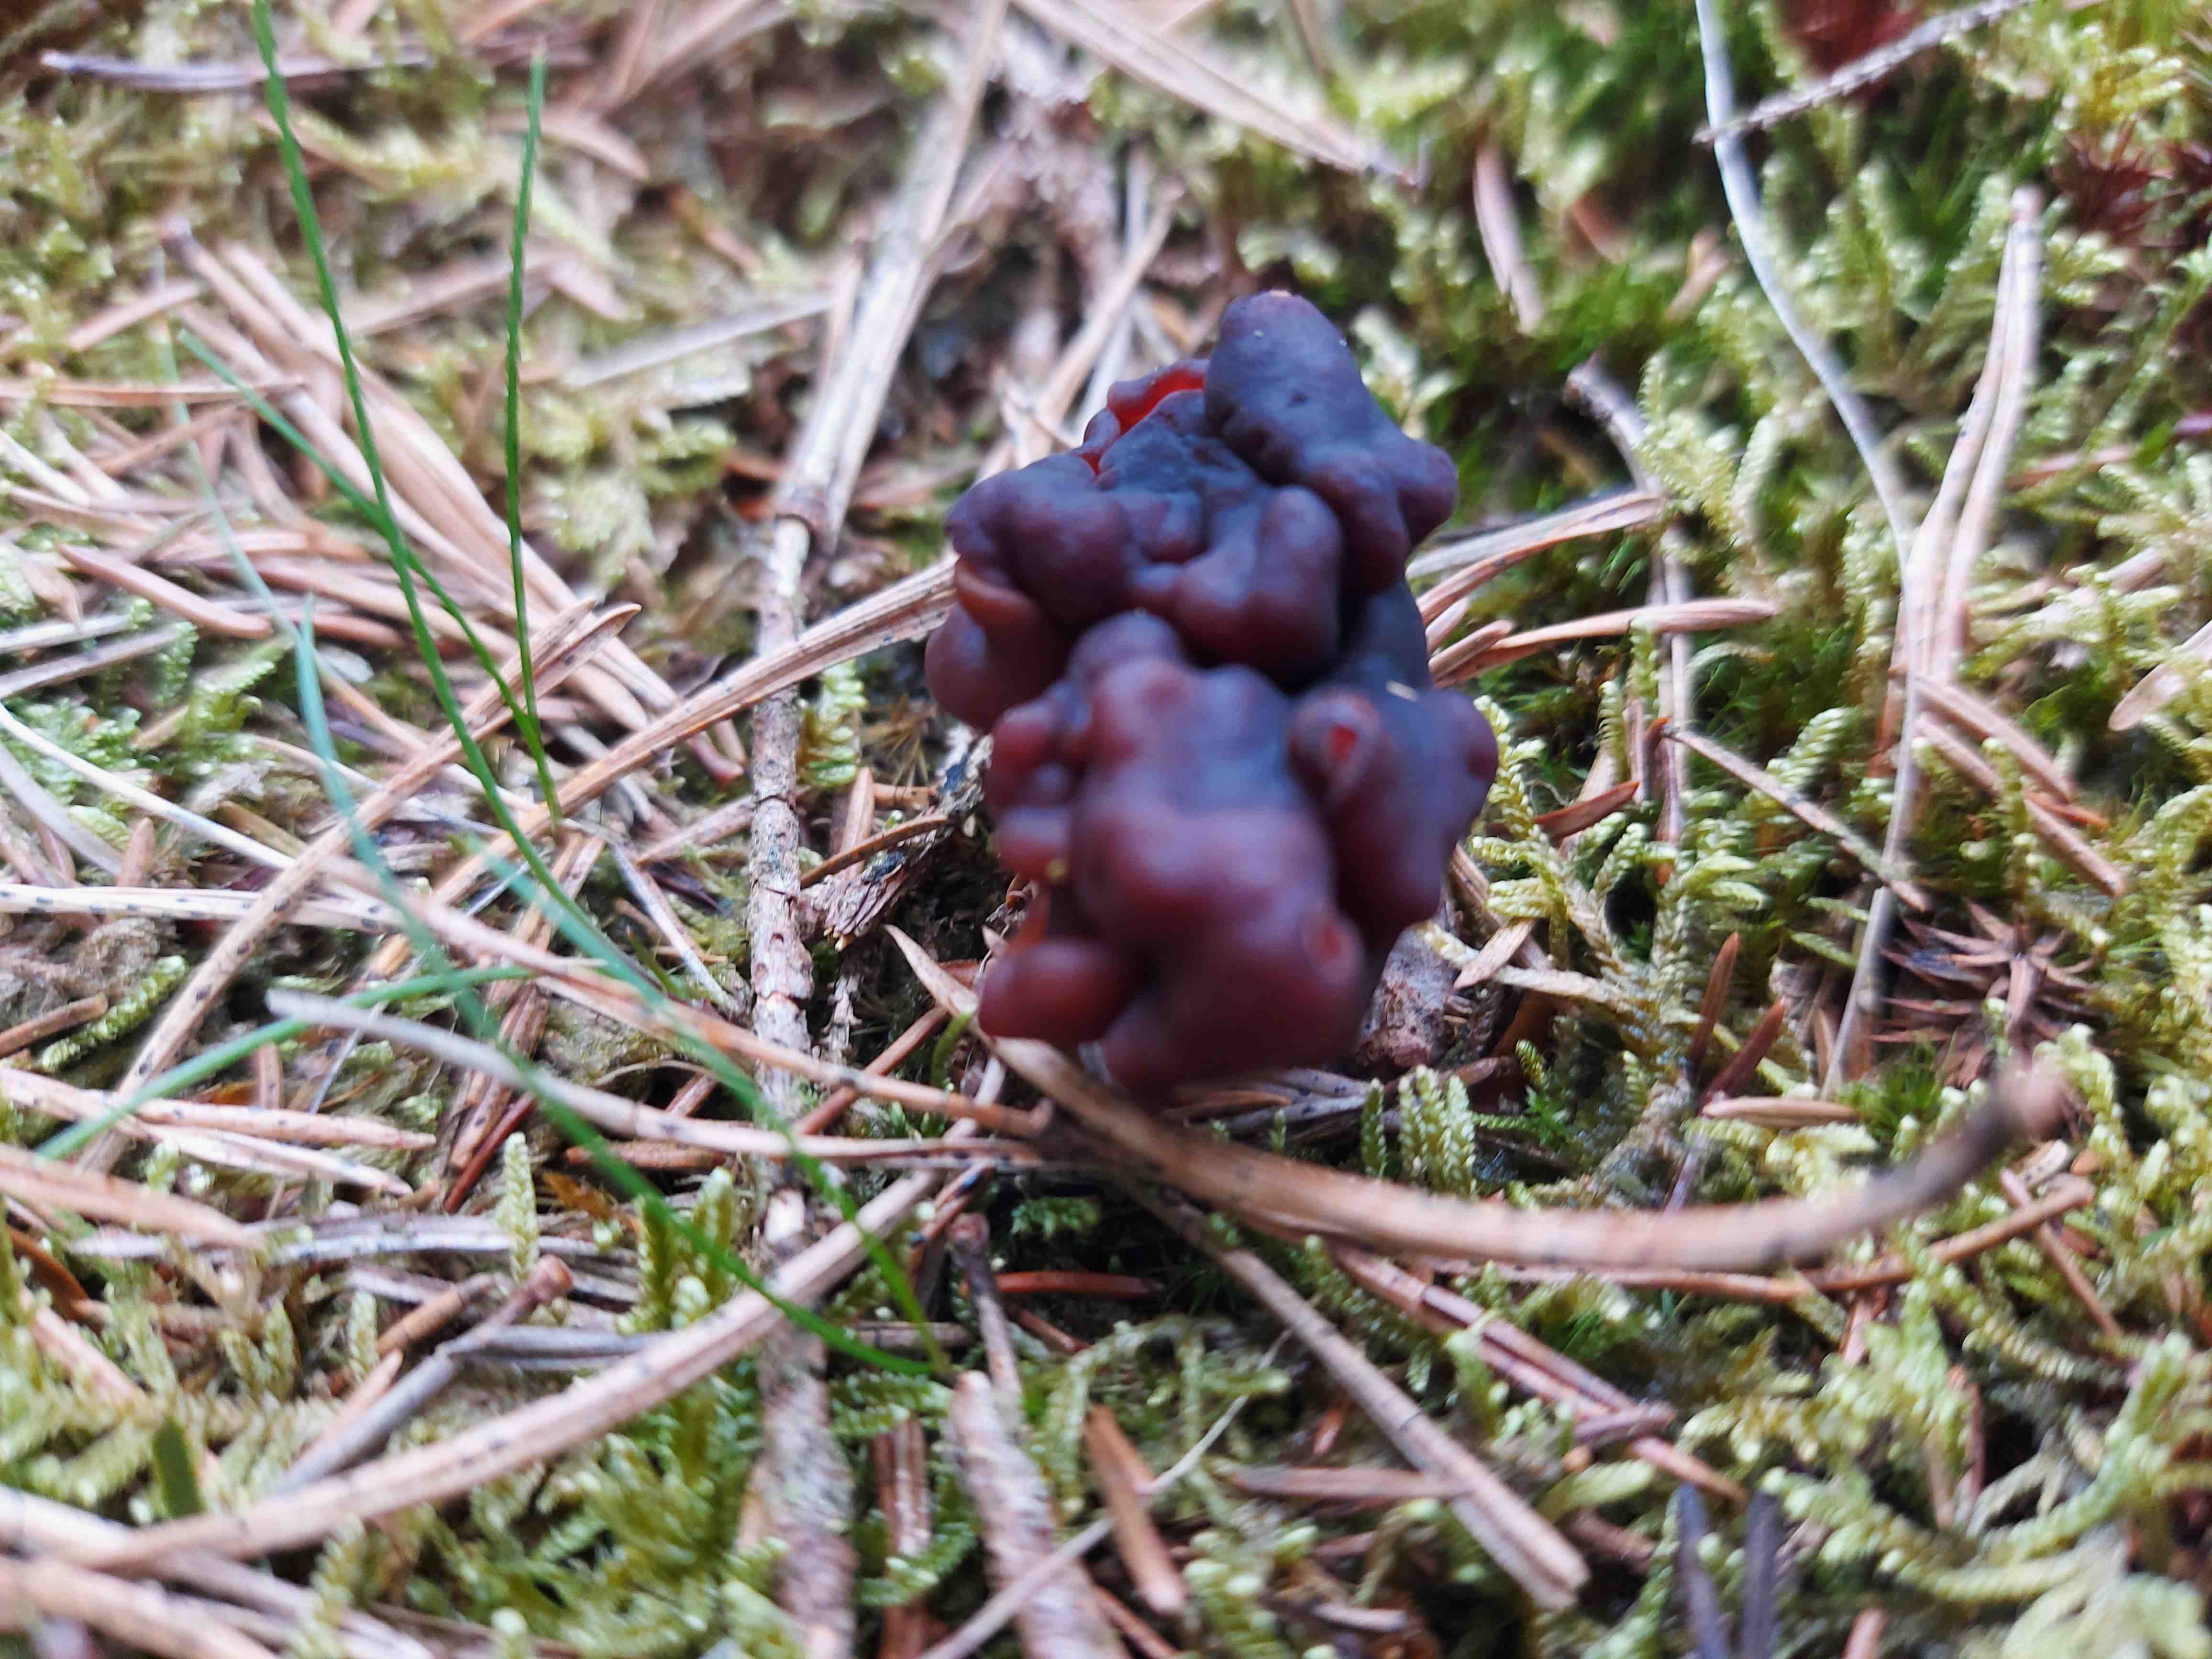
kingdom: Fungi
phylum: Ascomycota
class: Pezizomycetes
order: Pezizales
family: Discinaceae
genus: Gyromitra
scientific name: Gyromitra esculenta
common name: ægte stenmorkel
